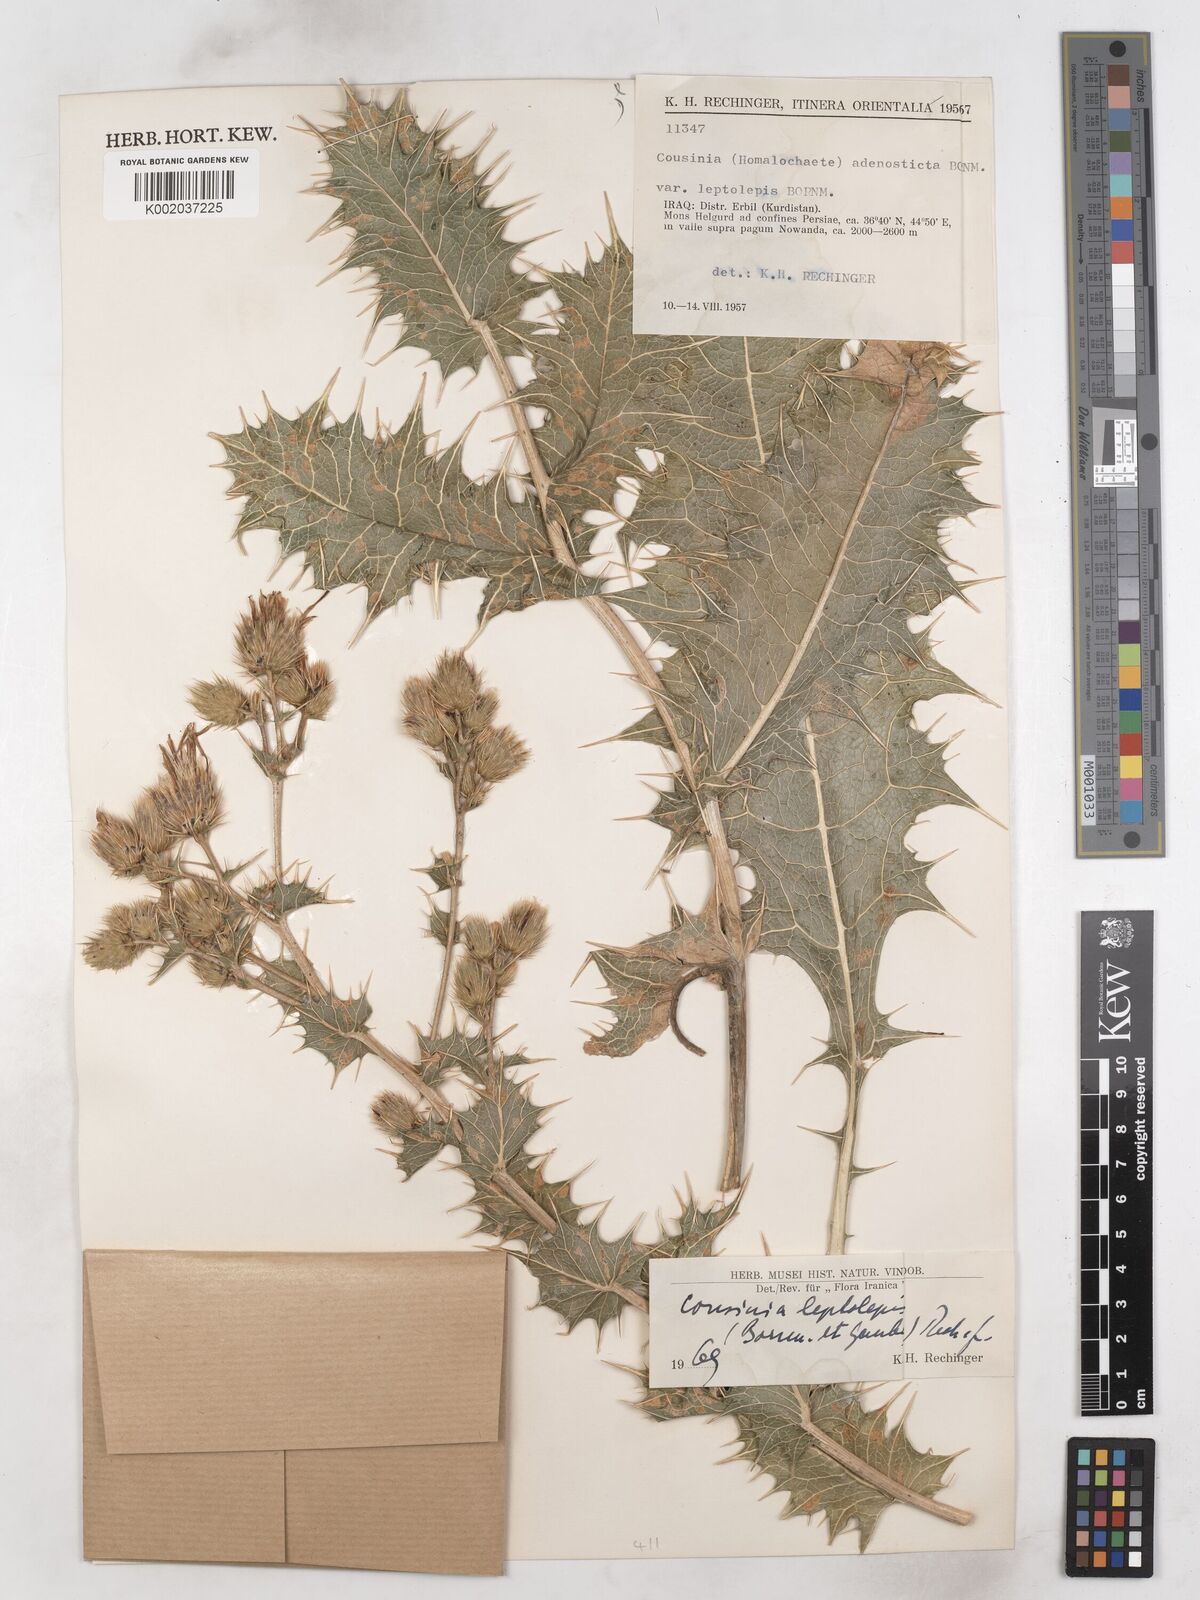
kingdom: Plantae
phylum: Tracheophyta
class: Magnoliopsida
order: Asterales
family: Asteraceae
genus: Cousinia
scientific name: Cousinia leptolepis
